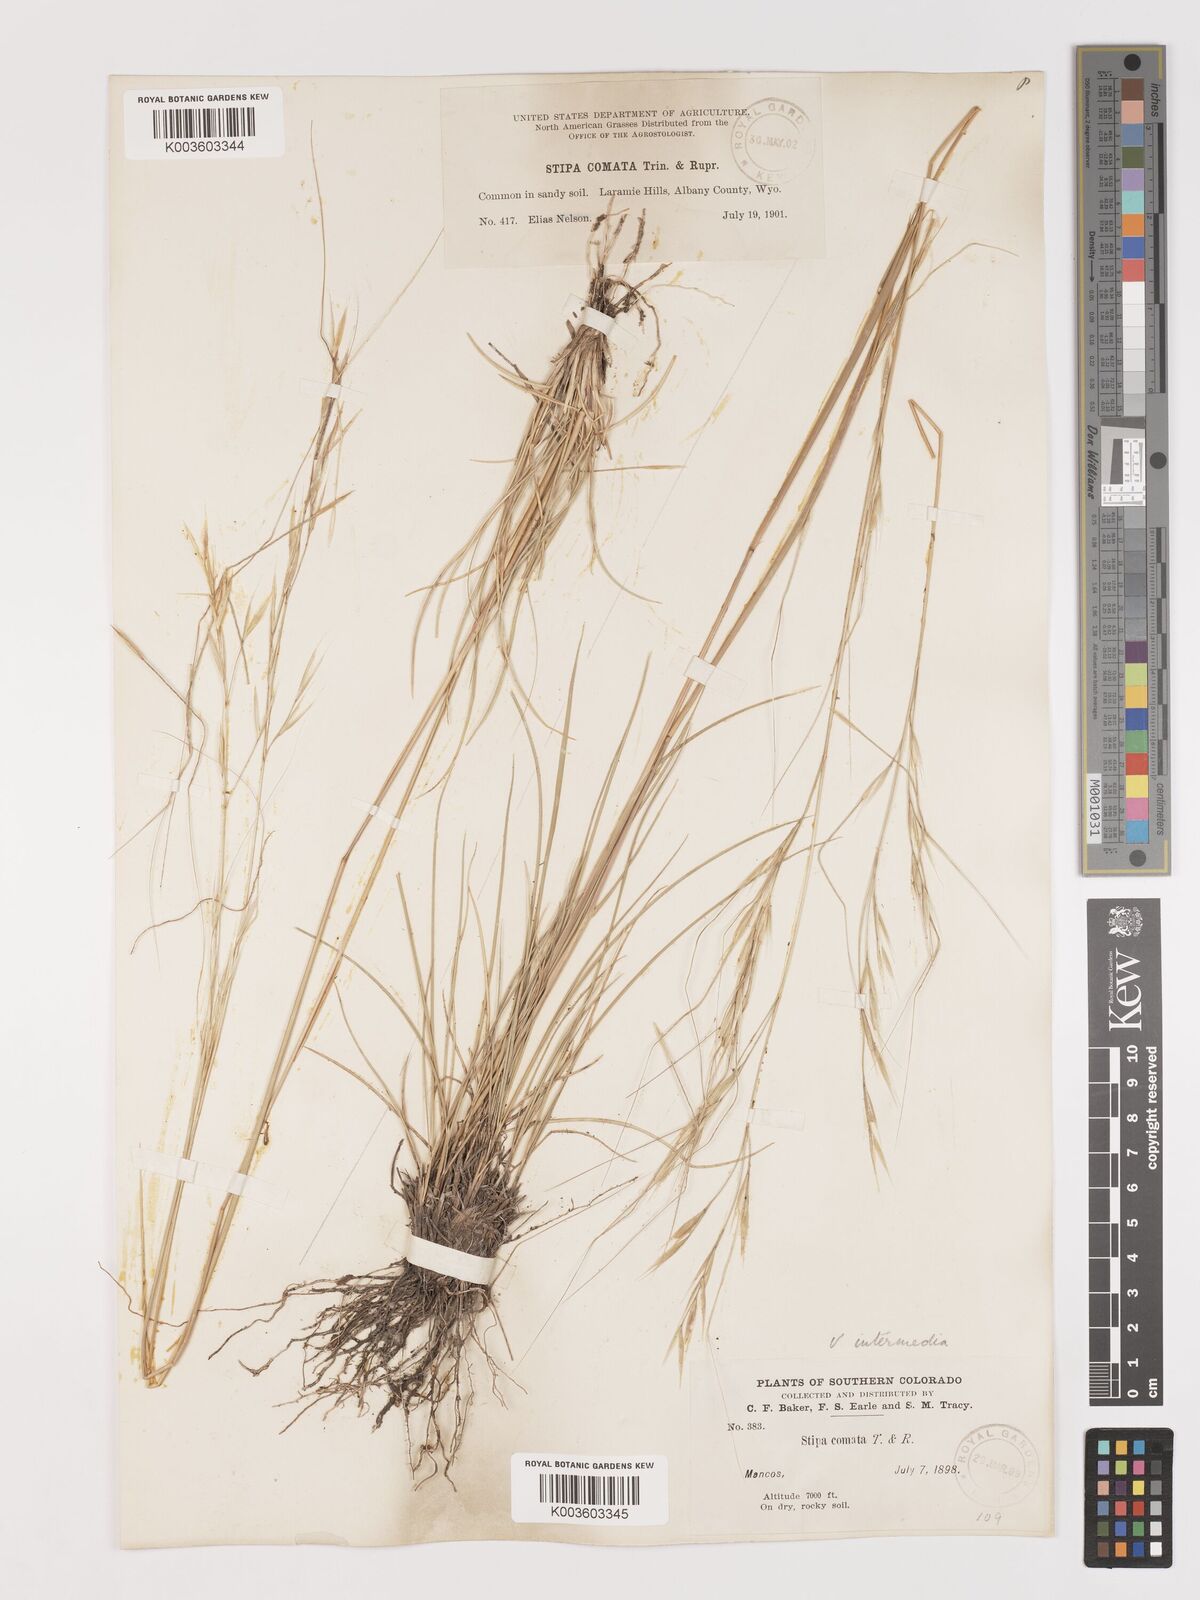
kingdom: Plantae
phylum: Tracheophyta
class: Liliopsida
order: Poales
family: Poaceae
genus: Hesperostipa
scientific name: Hesperostipa comata
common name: Needle-and-thread grass
